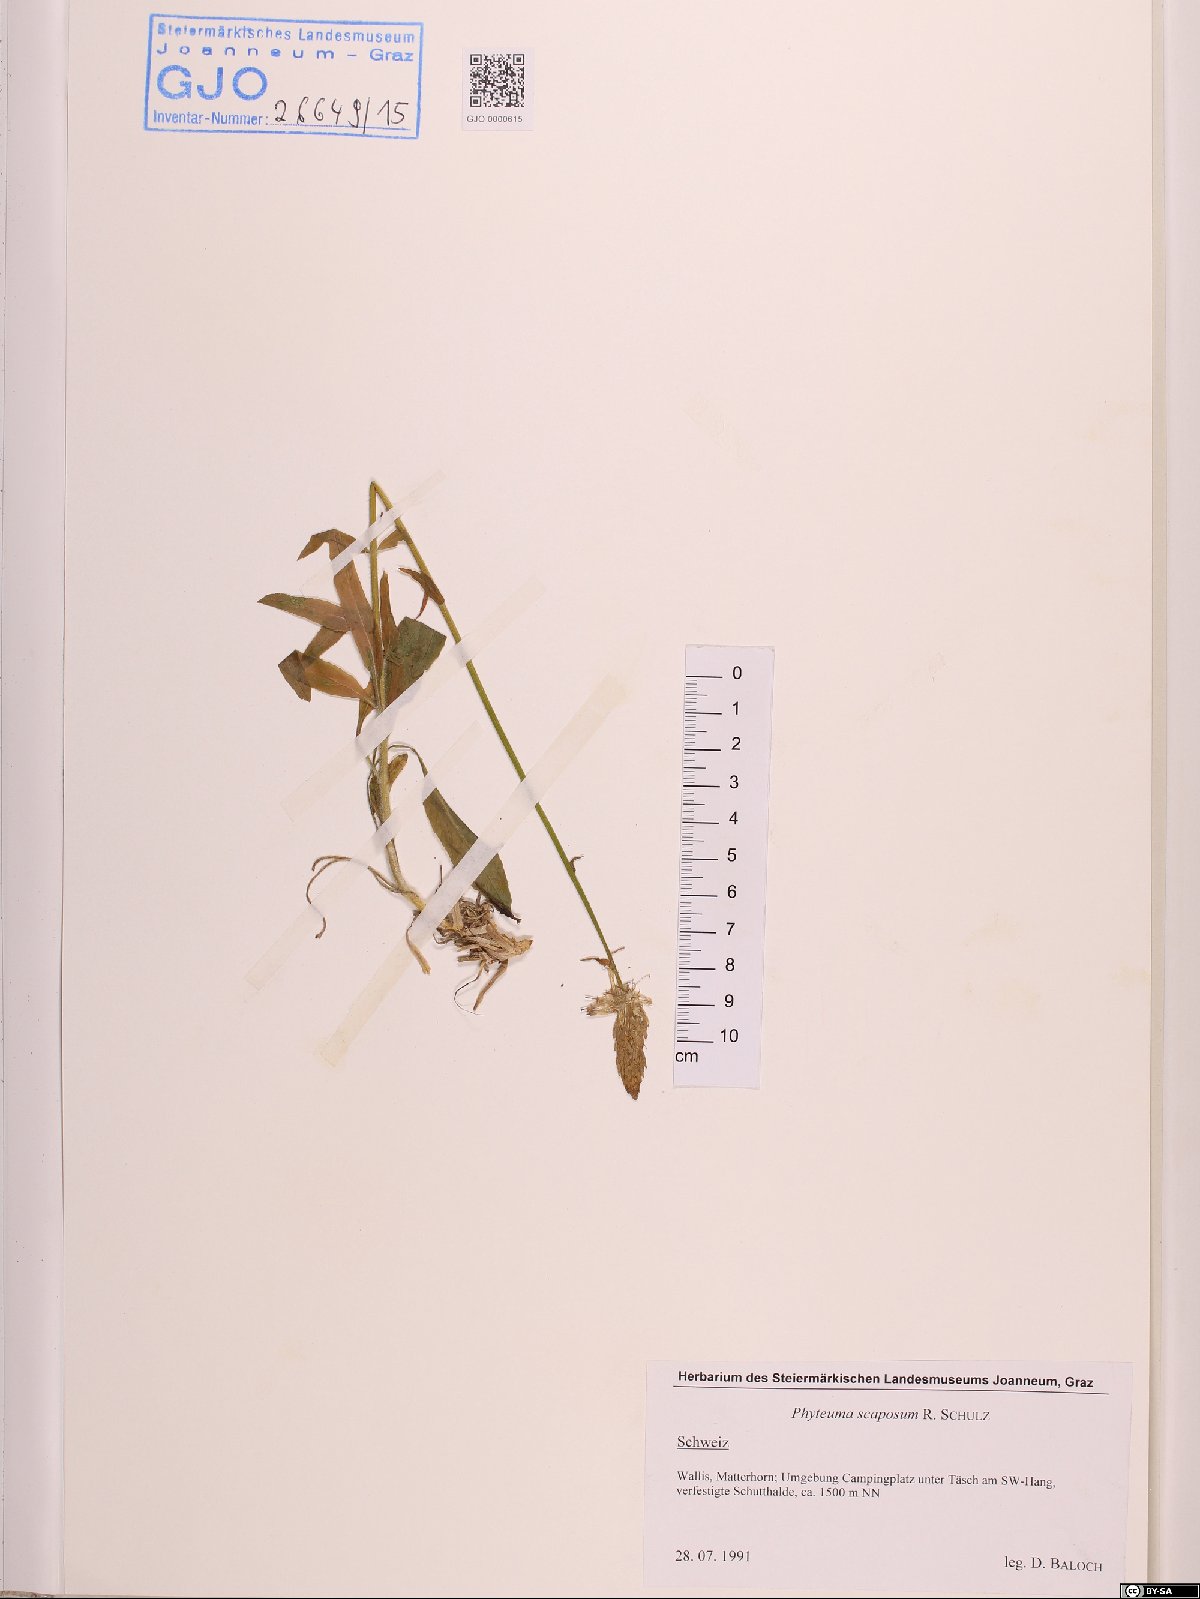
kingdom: Plantae
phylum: Tracheophyta
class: Magnoliopsida
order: Asterales
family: Campanulaceae
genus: Phyteuma
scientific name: Phyteuma betonicifolium
